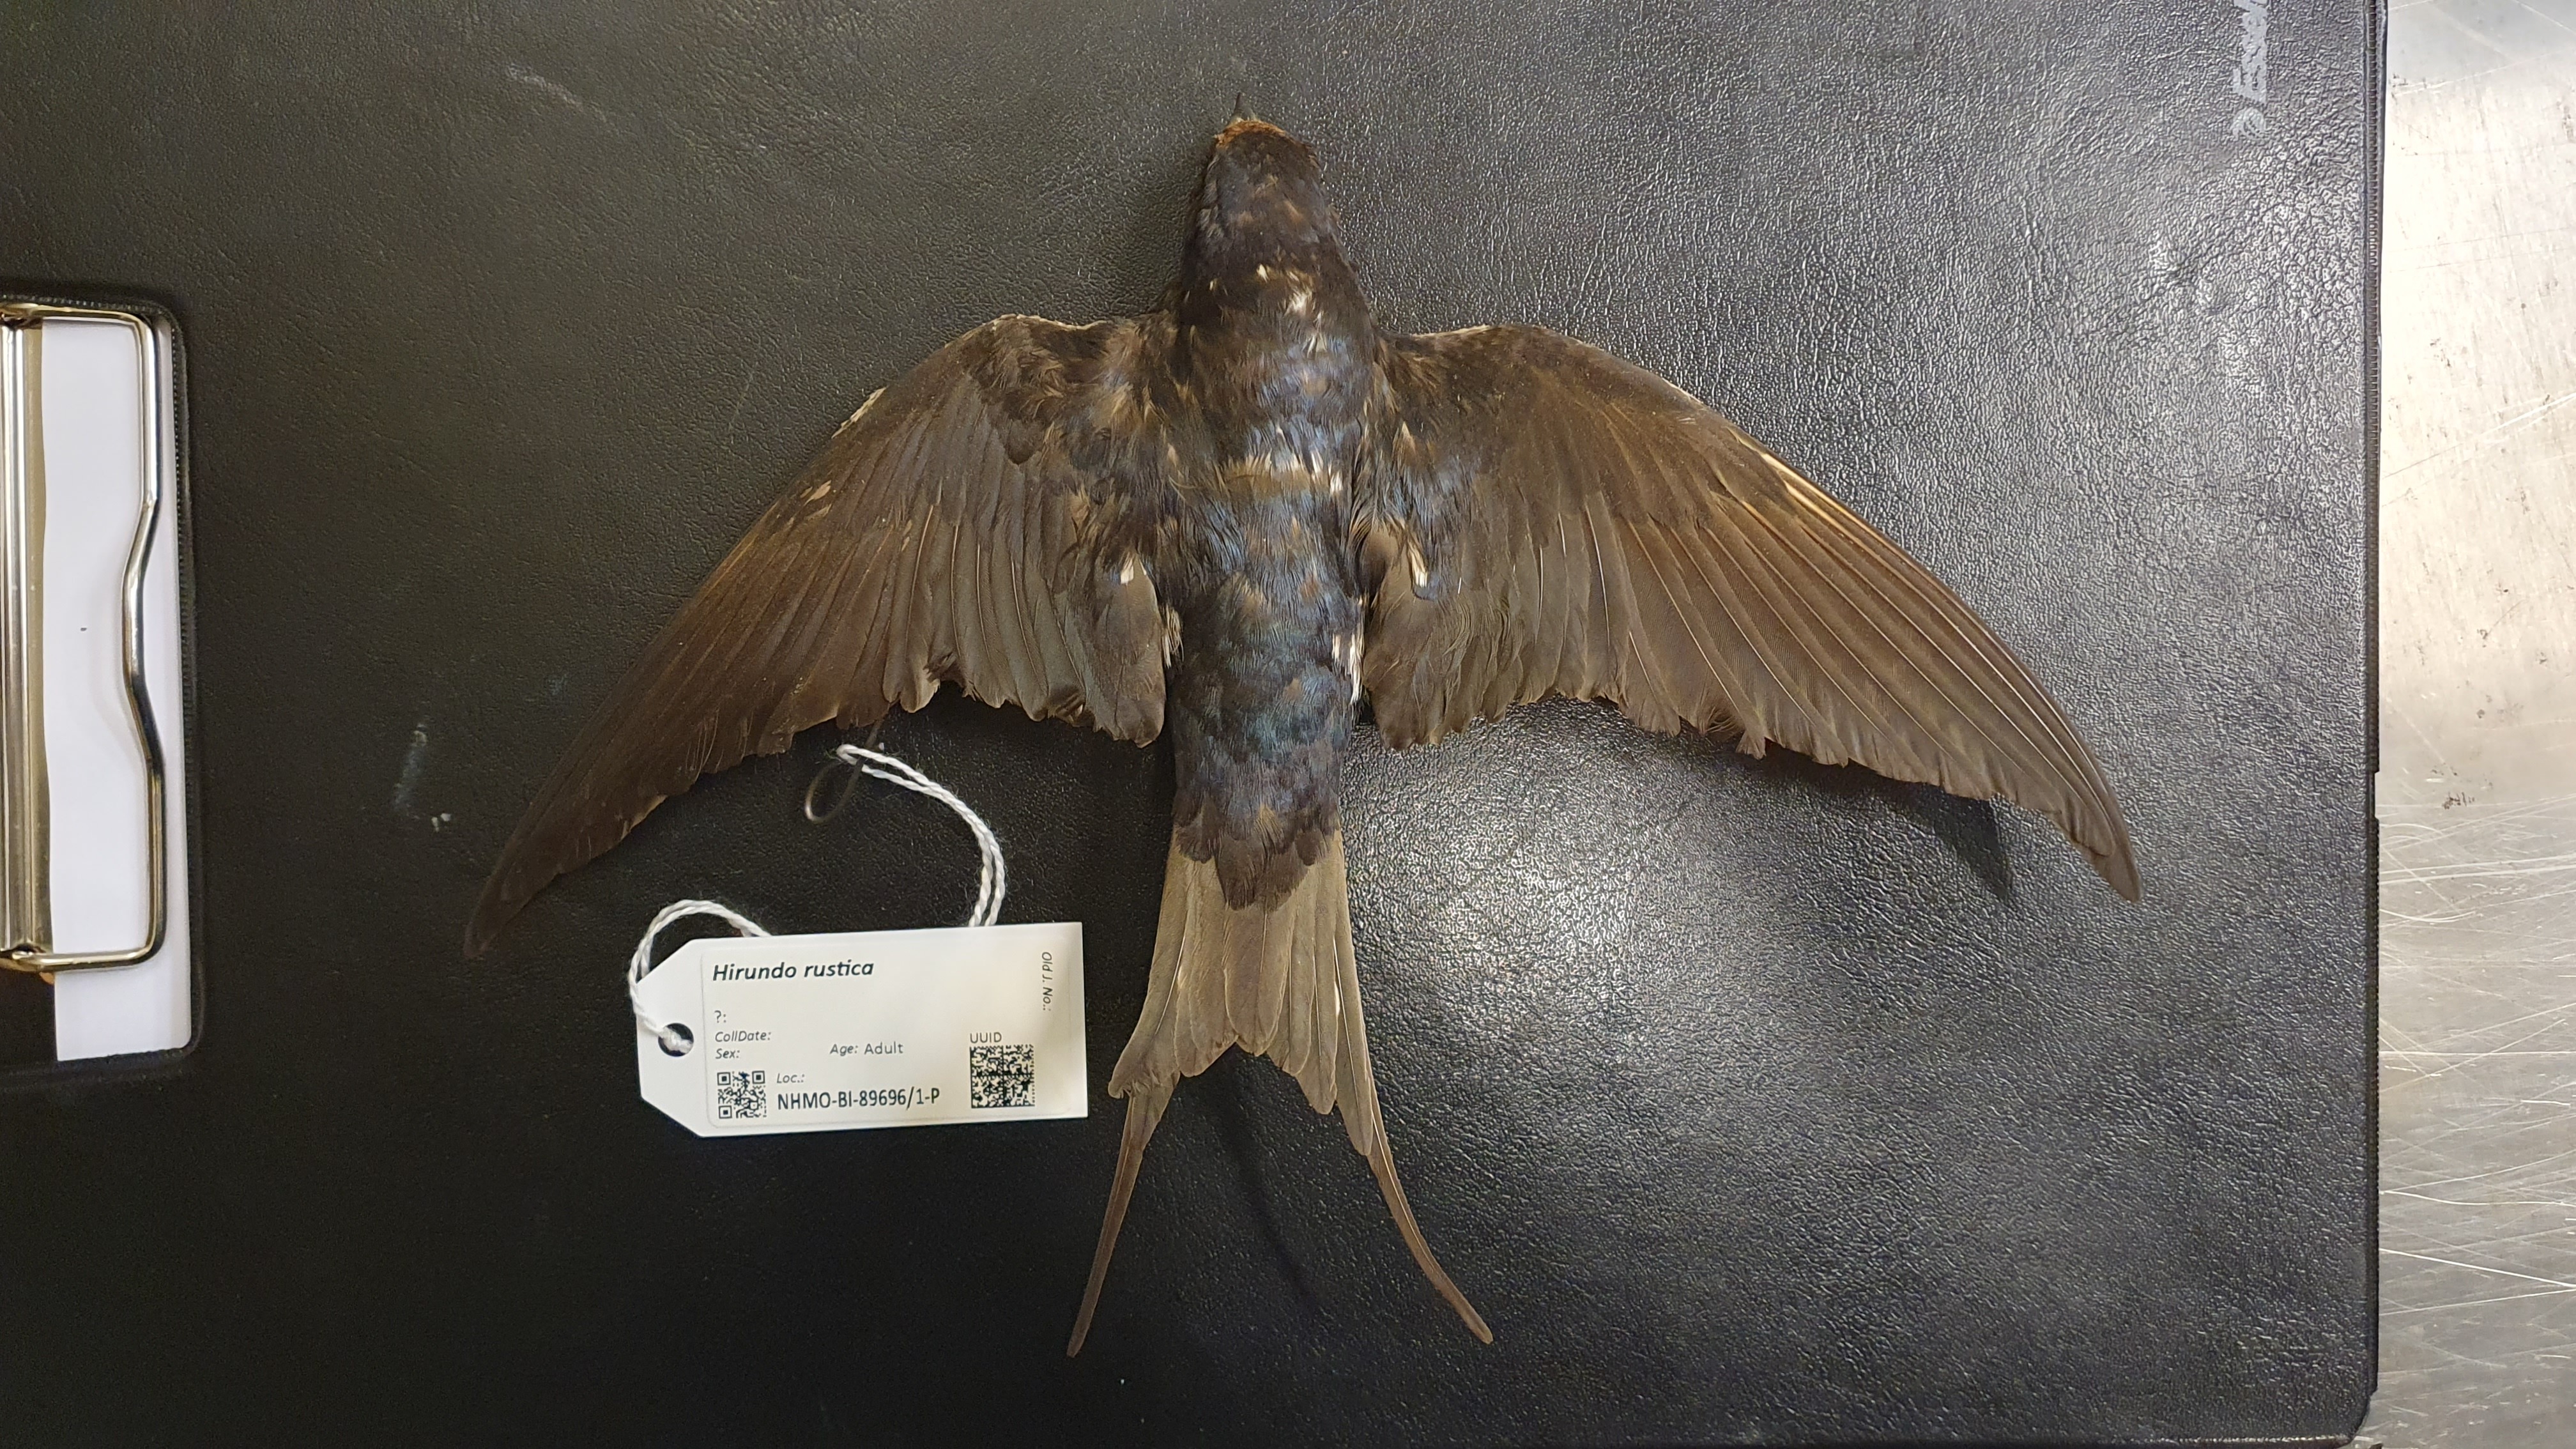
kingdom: Animalia
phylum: Chordata
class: Aves
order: Passeriformes
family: Hirundinidae
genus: Hirundo
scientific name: Hirundo rustica
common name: Barn swallow
